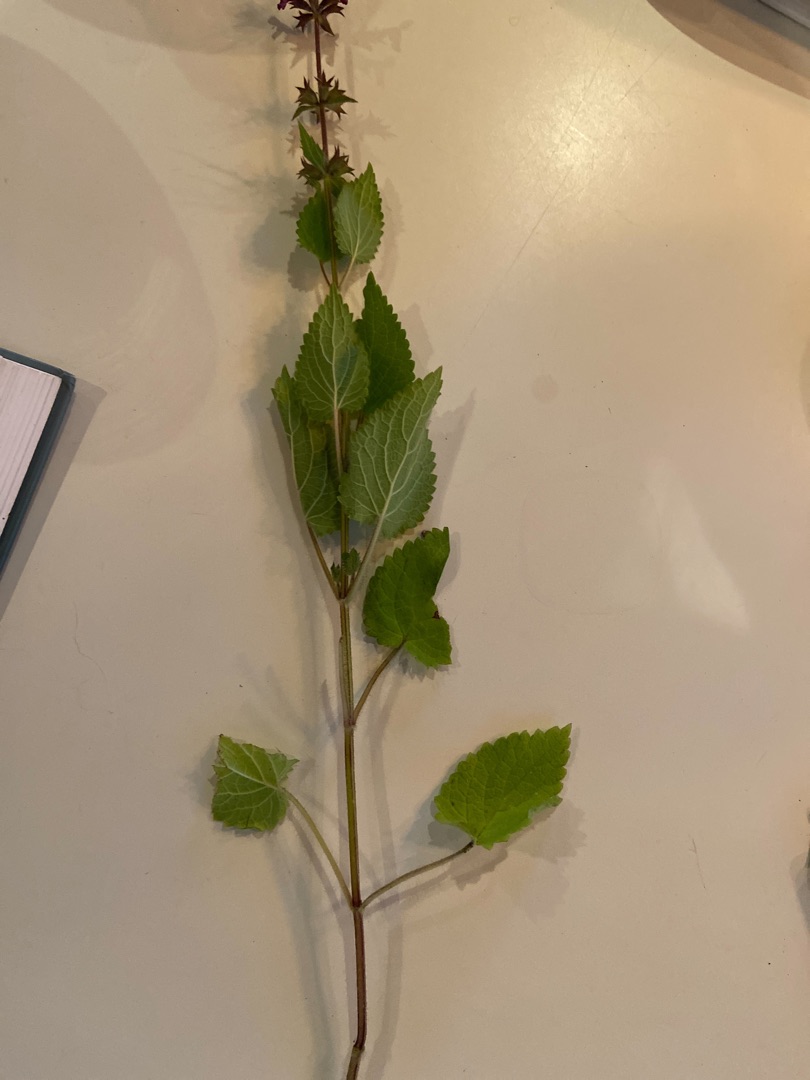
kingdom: Plantae
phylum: Tracheophyta
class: Magnoliopsida
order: Lamiales
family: Lamiaceae
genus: Stachys
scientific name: Stachys sylvatica
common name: Skov-galtetand
